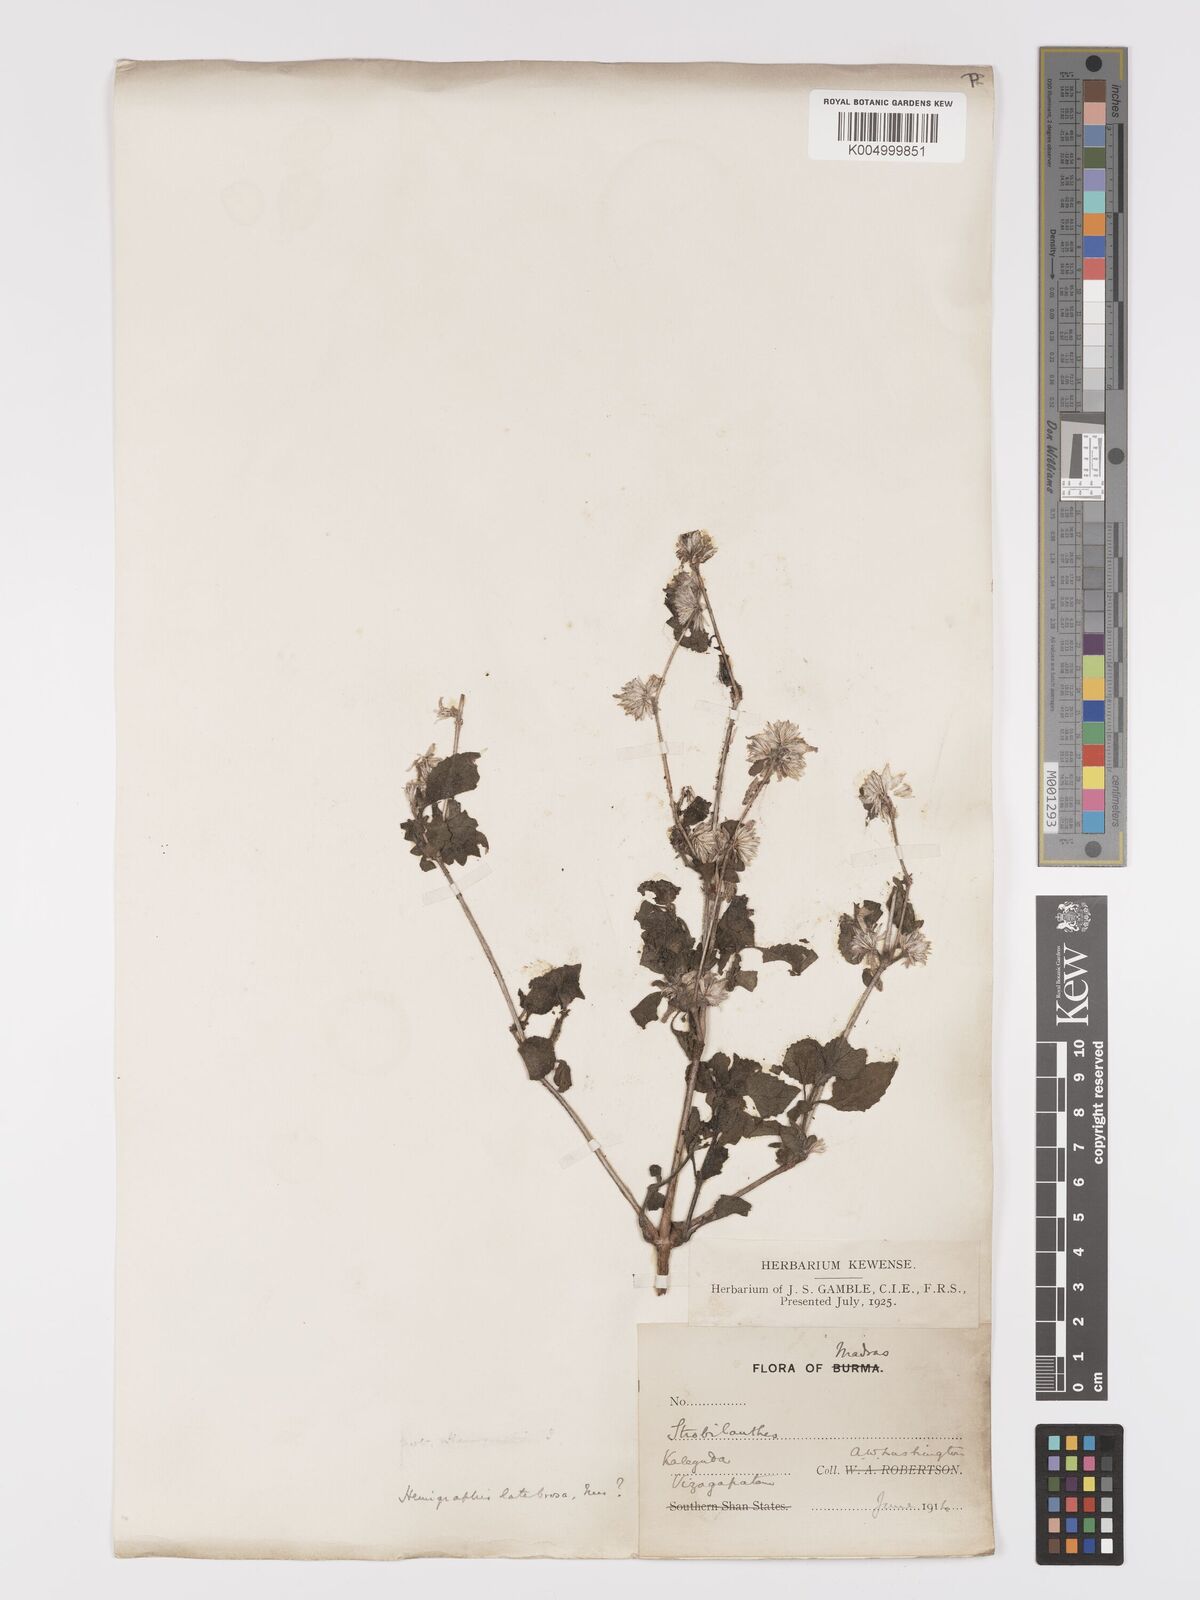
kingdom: Plantae
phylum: Tracheophyta
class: Magnoliopsida
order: Lamiales
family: Acanthaceae
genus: Strobilanthes
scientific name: Strobilanthes pavala
